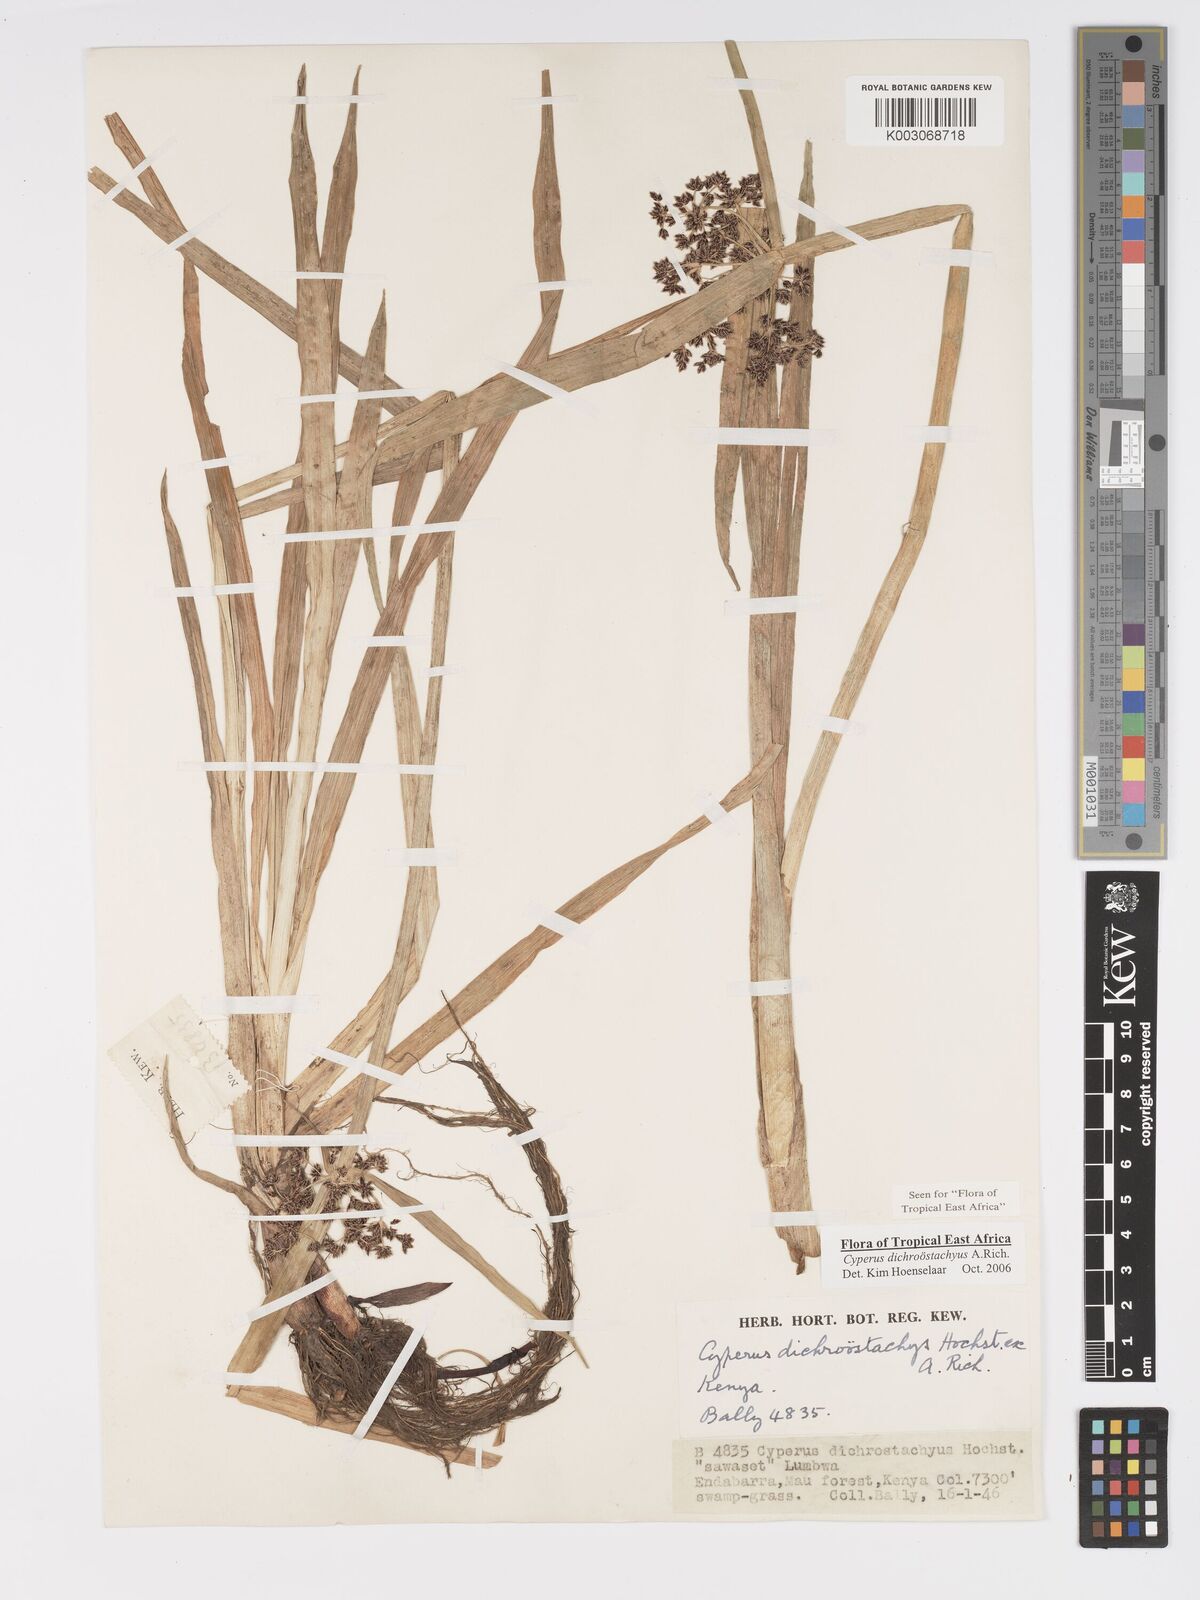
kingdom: Plantae
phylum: Tracheophyta
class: Liliopsida
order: Poales
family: Cyperaceae
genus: Cyperus
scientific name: Cyperus dichrostachyus
